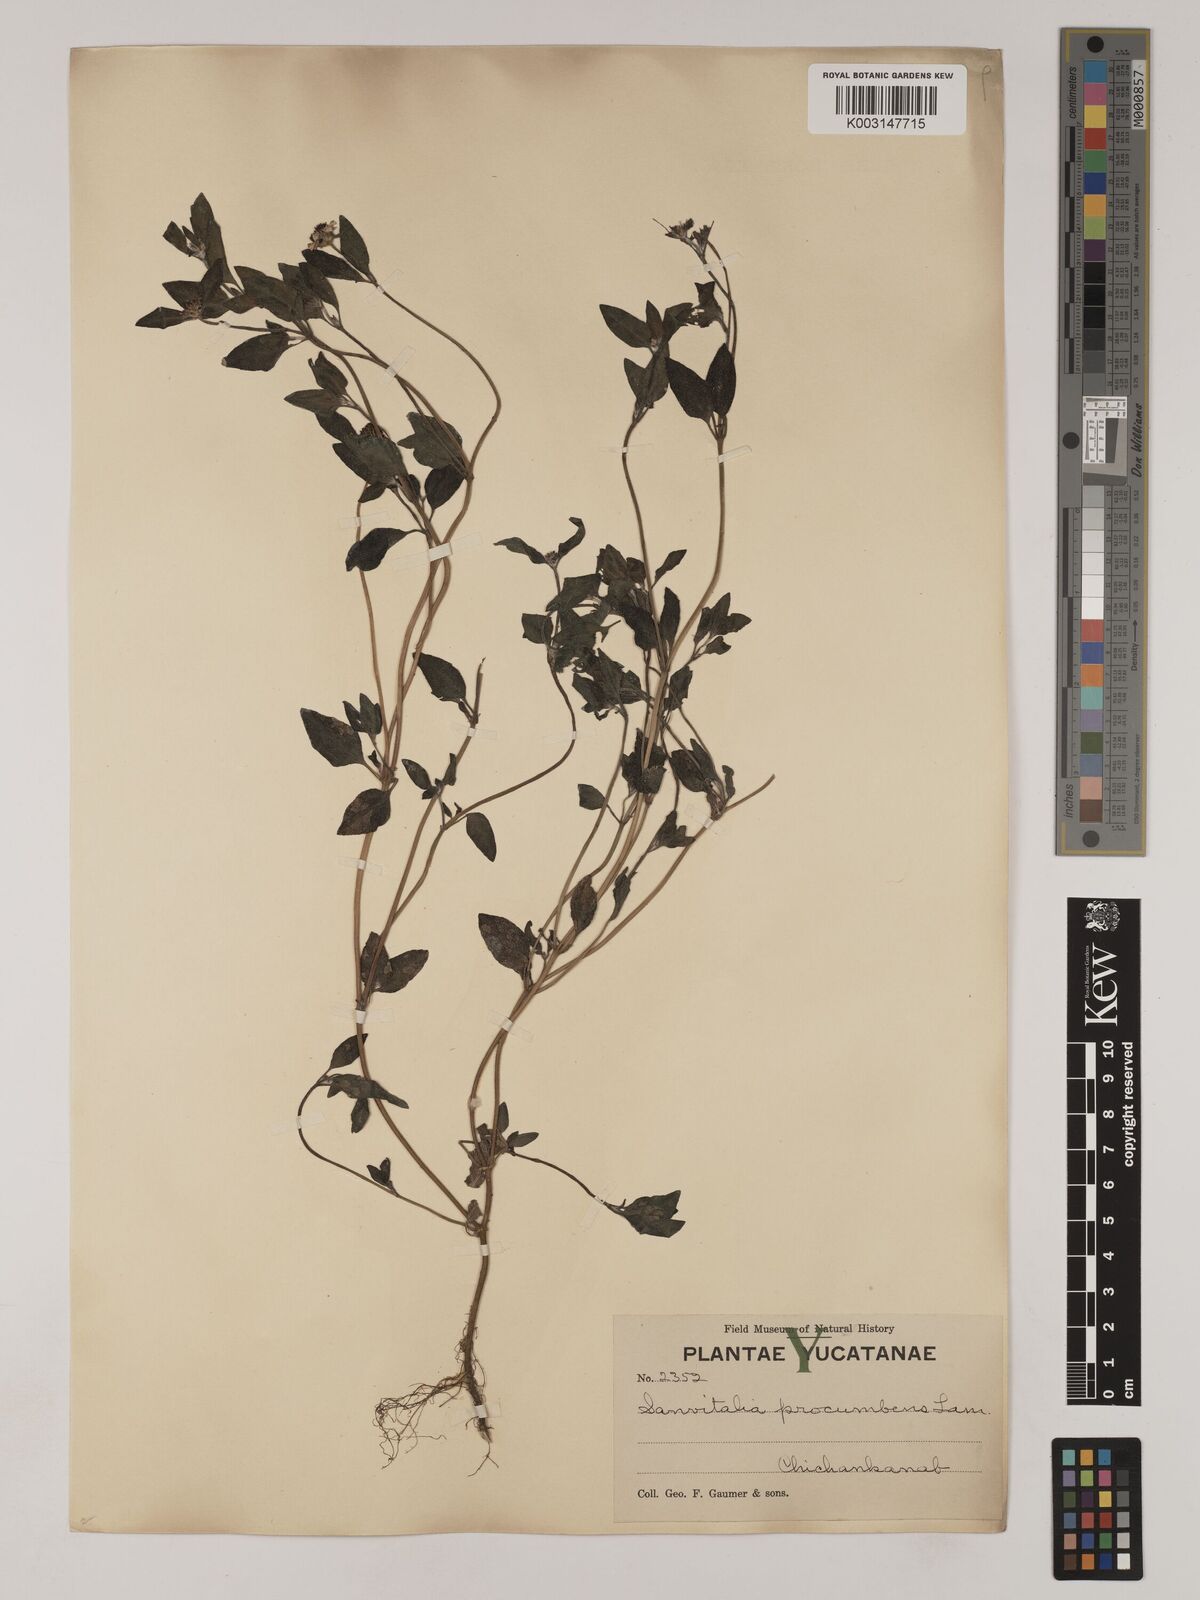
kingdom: Plantae
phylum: Tracheophyta
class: Magnoliopsida
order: Asterales
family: Asteraceae
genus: Sanvitalia
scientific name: Sanvitalia procumbens
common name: Mexican creeping zinnia
